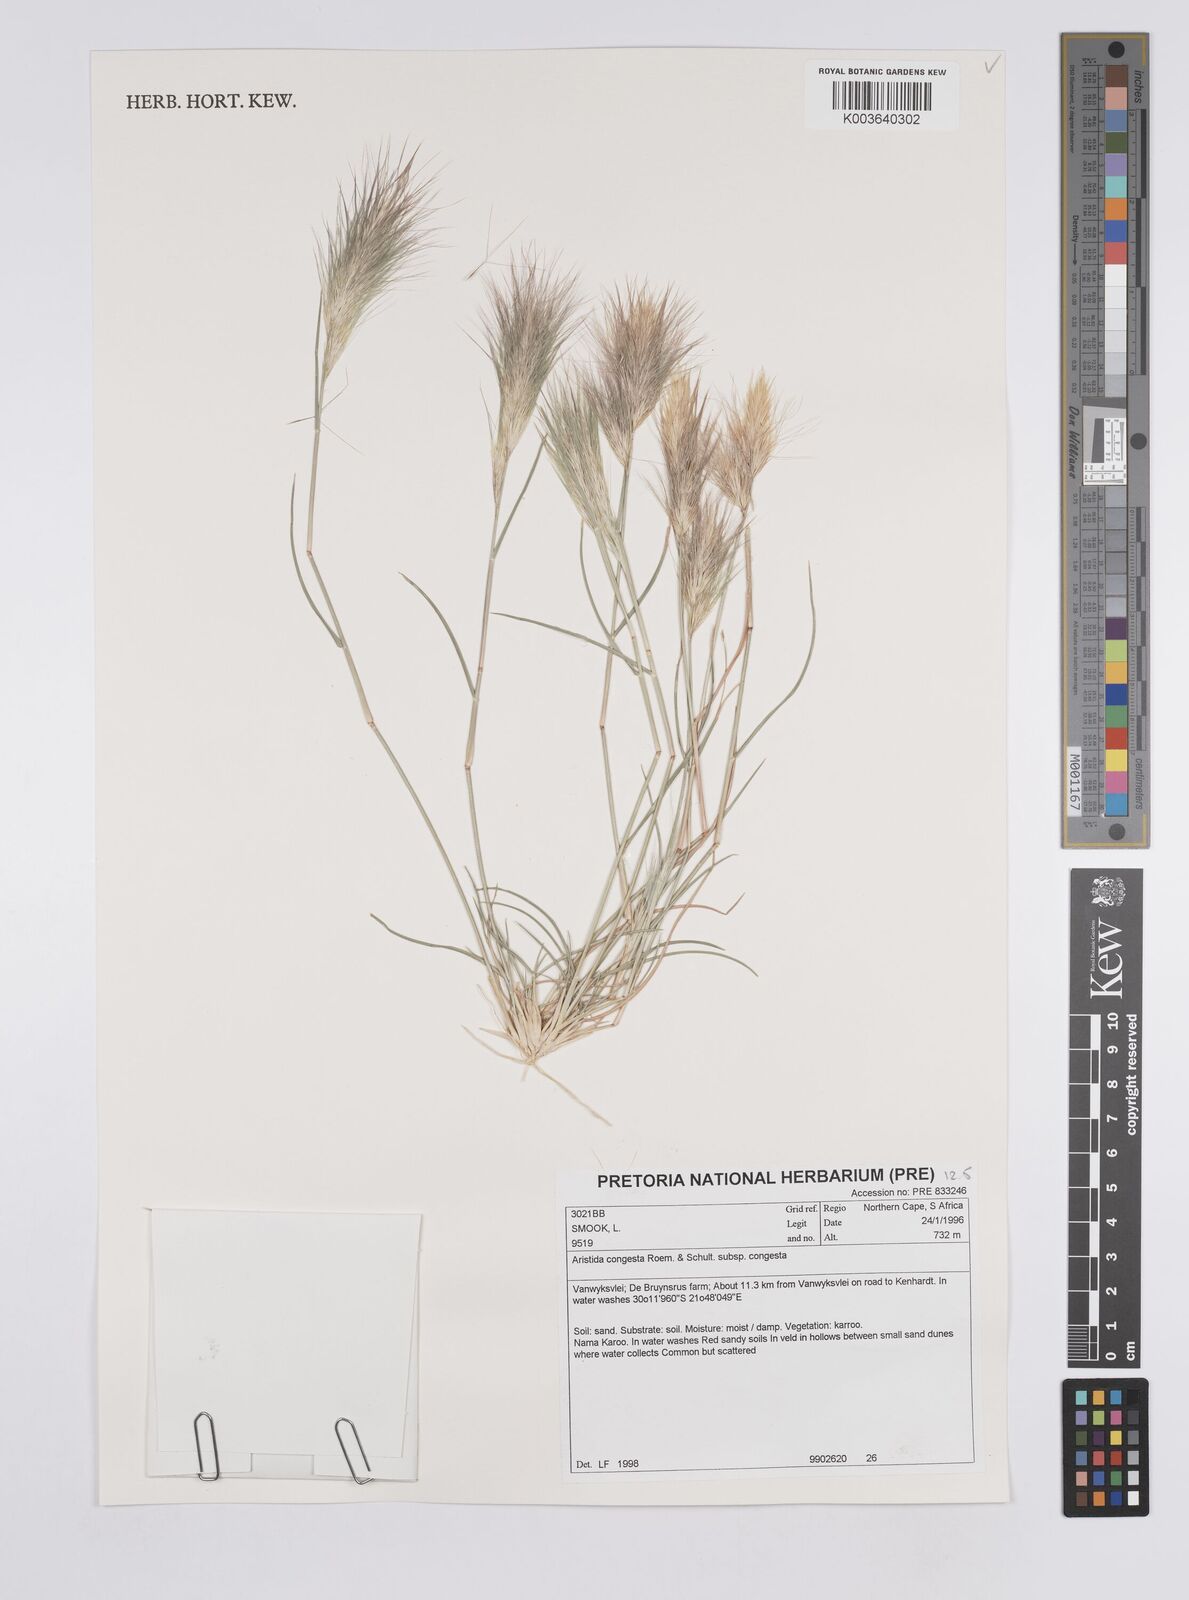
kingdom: Plantae
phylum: Tracheophyta
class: Liliopsida
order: Poales
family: Poaceae
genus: Aristida
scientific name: Aristida congesta
